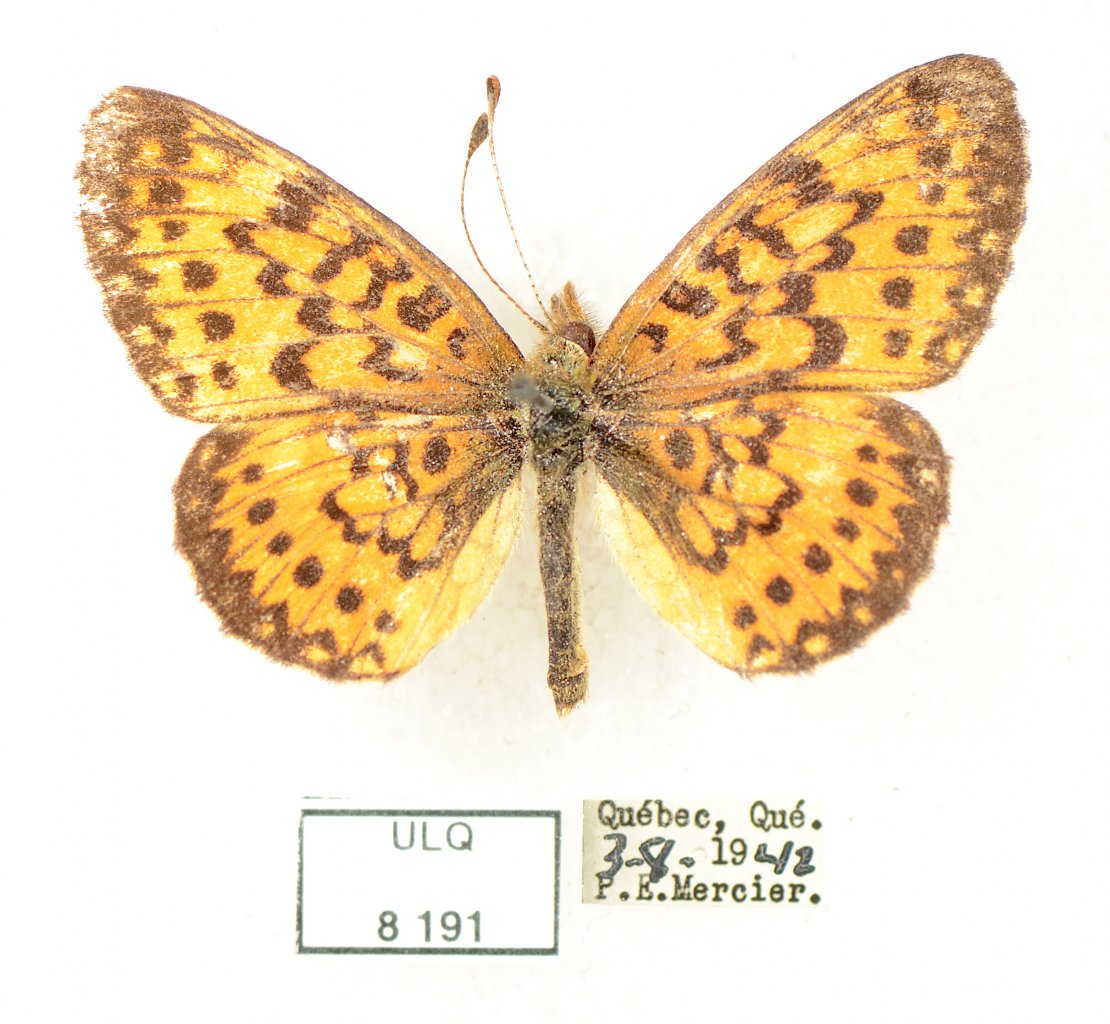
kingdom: Animalia
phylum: Arthropoda
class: Insecta
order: Lepidoptera
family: Nymphalidae
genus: Boloria
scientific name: Boloria selene
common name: Silver-bordered Fritillary
